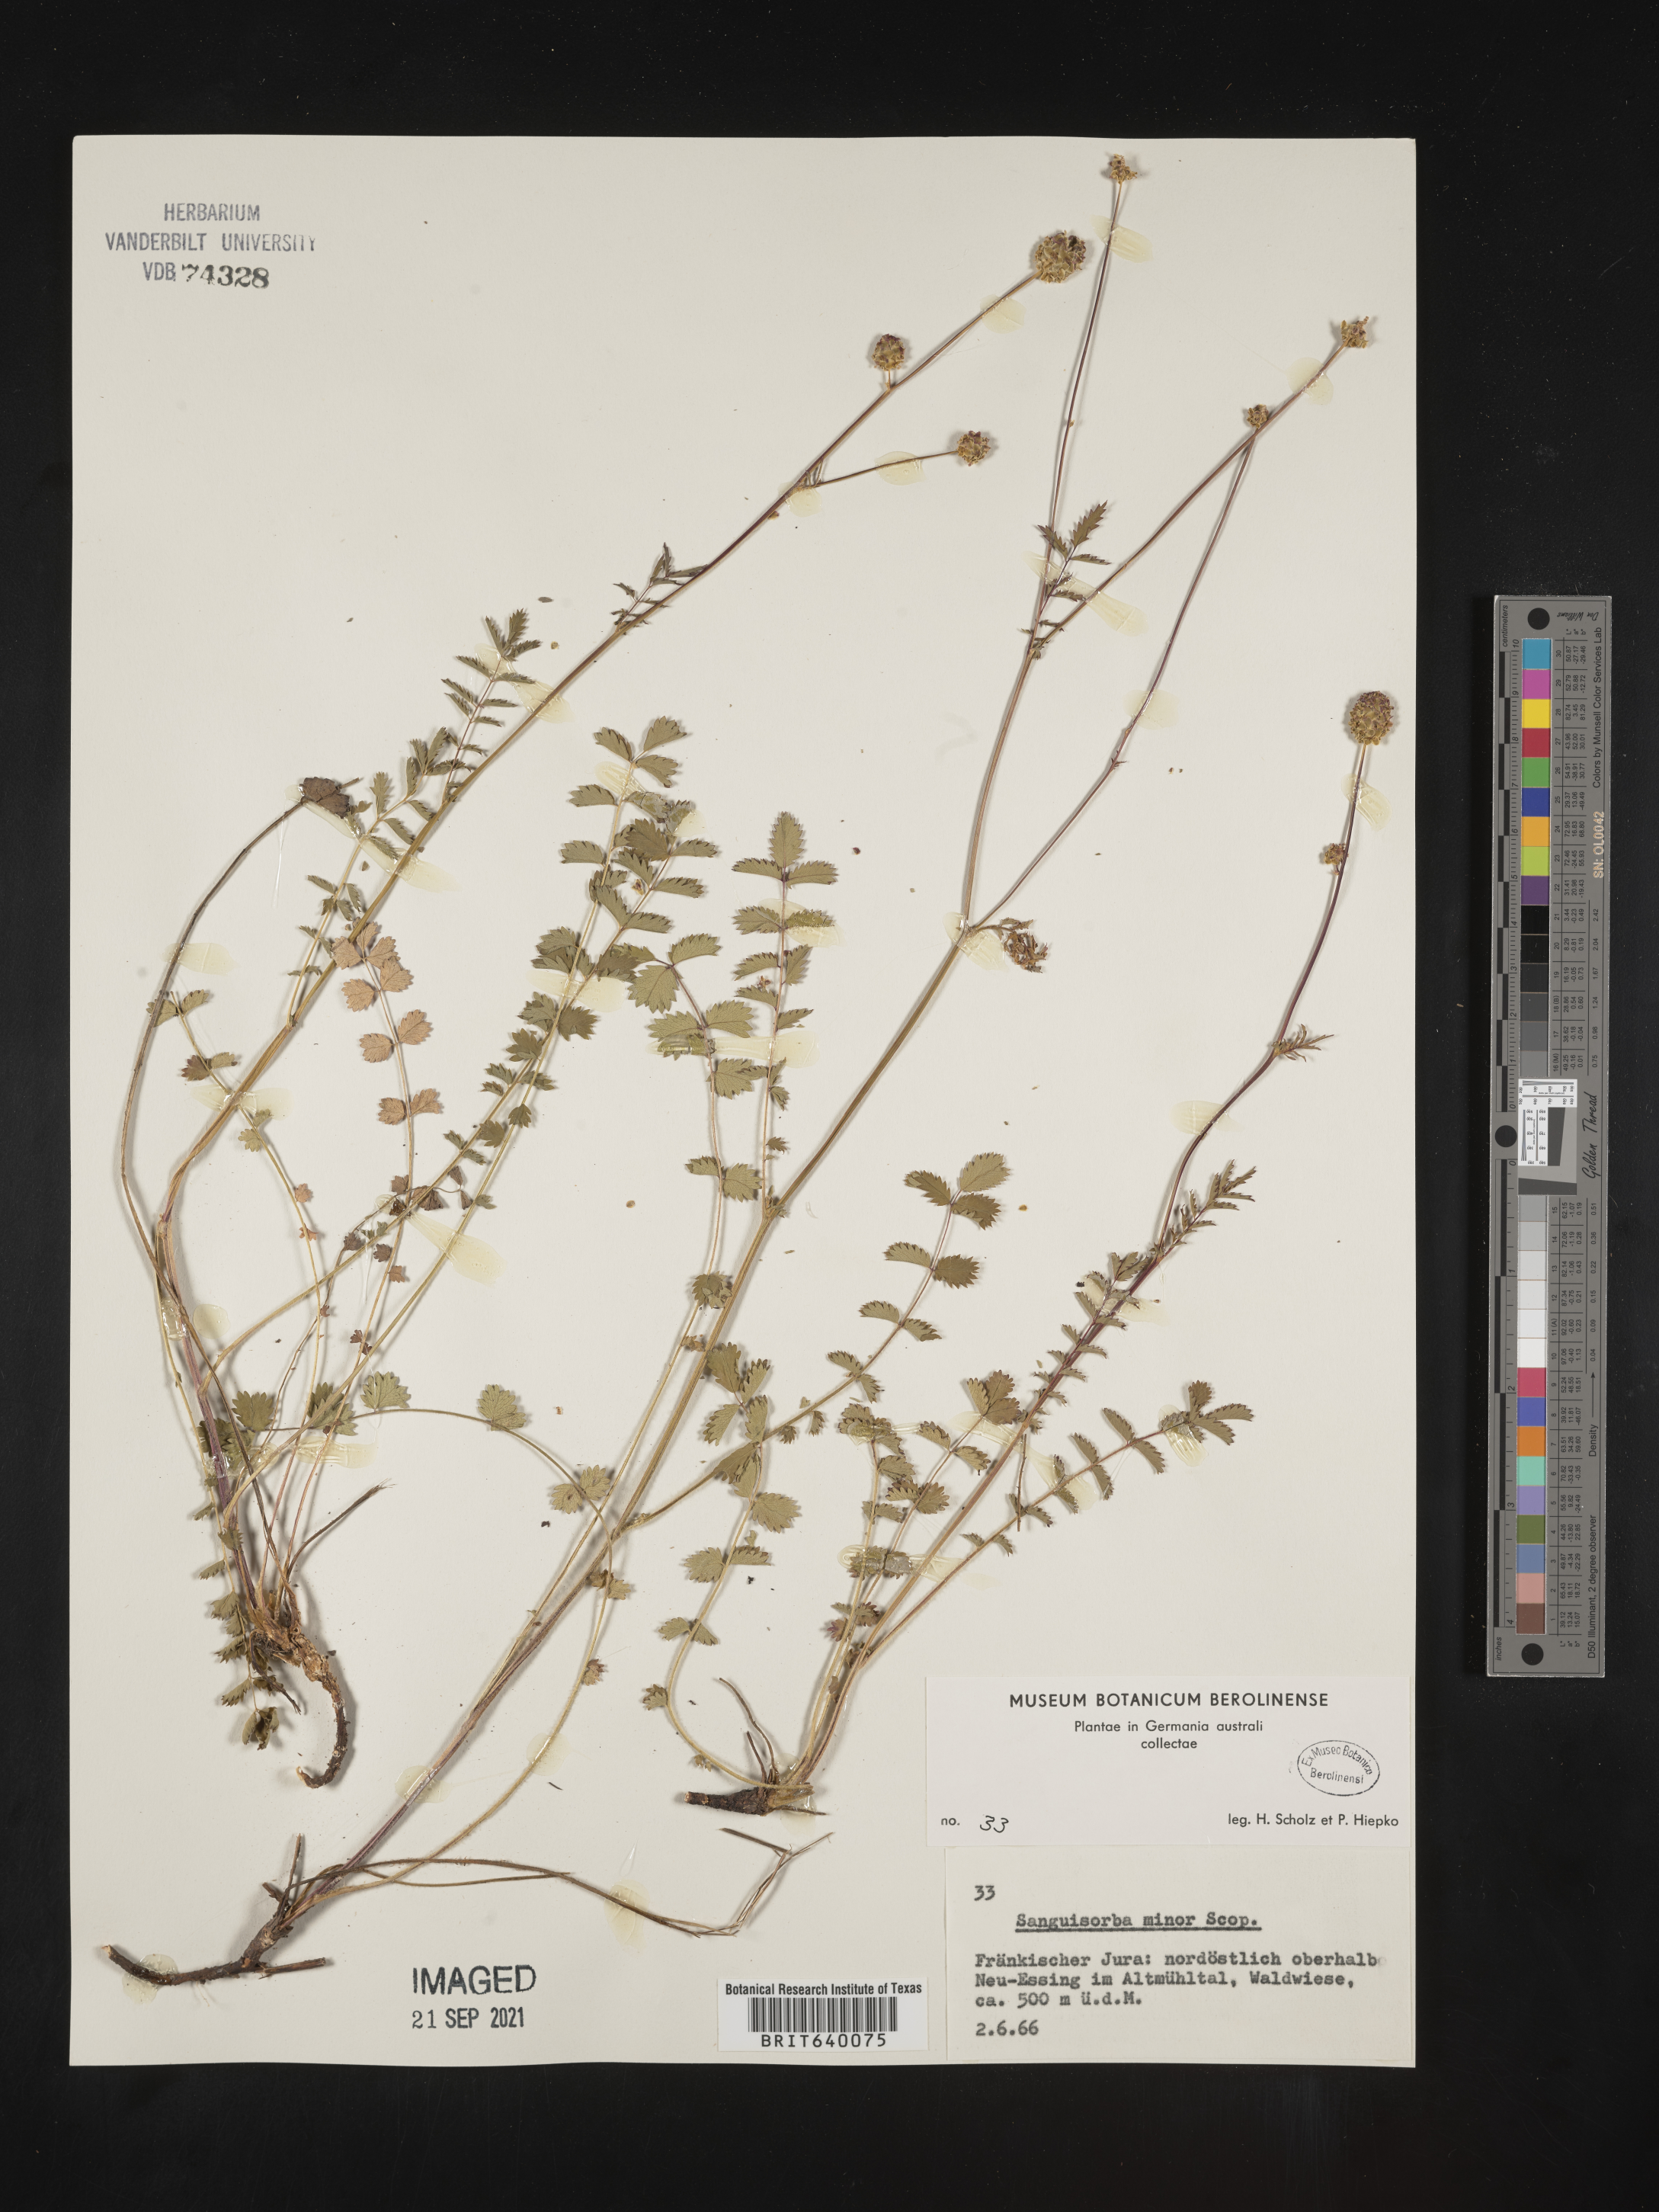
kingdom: Plantae
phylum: Tracheophyta
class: Magnoliopsida
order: Rosales
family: Rosaceae
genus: Sanguisorba
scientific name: Sanguisorba
